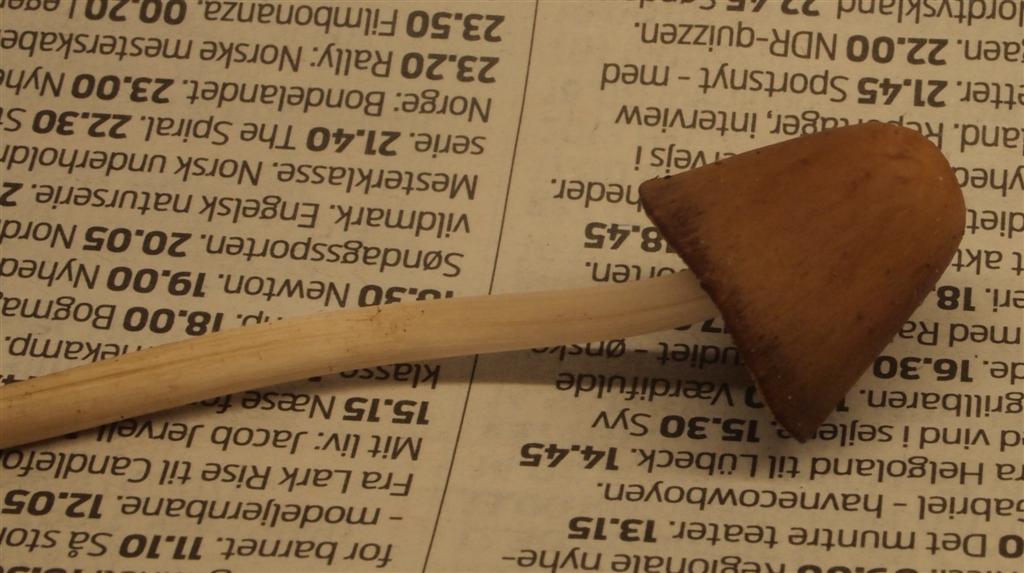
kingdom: Fungi
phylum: Basidiomycota
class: Agaricomycetes
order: Agaricales
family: Psathyrellaceae
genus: Parasola
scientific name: Parasola conopilea
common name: kegle-hjulhat
